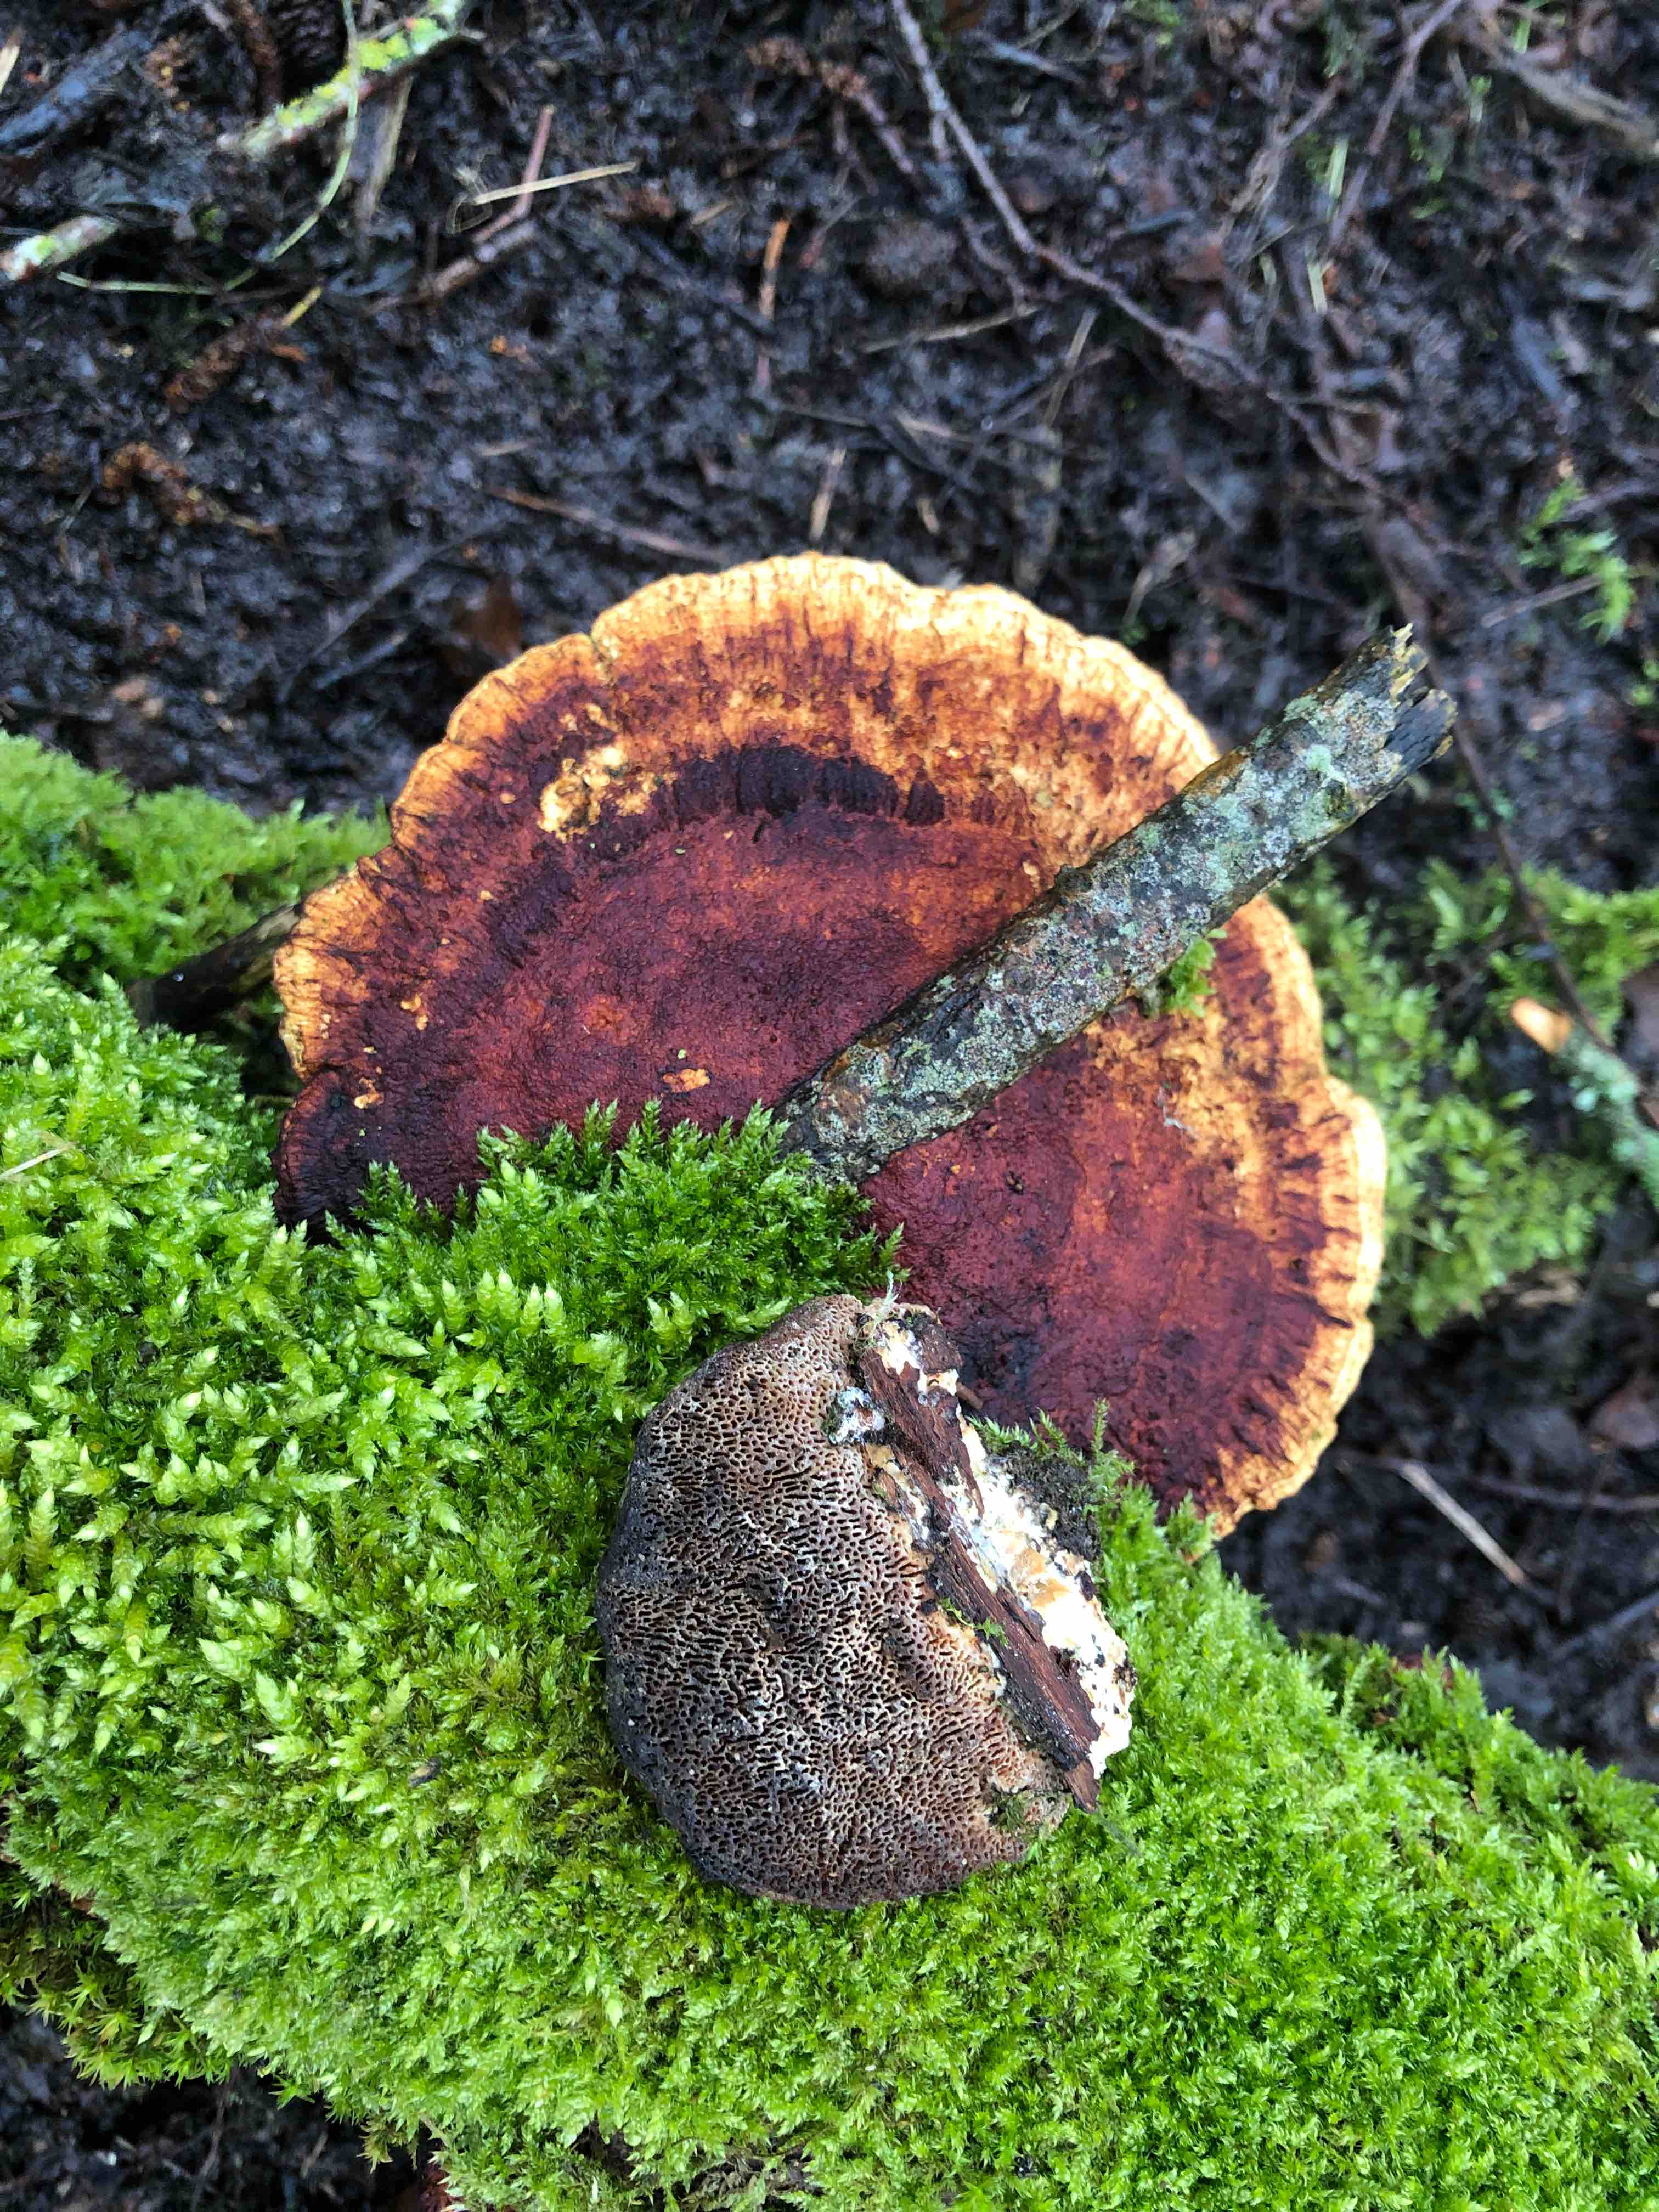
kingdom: Fungi
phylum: Basidiomycota
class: Agaricomycetes
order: Polyporales
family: Polyporaceae
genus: Daedaleopsis
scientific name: Daedaleopsis confragosa
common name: rødmende læderporesvamp
